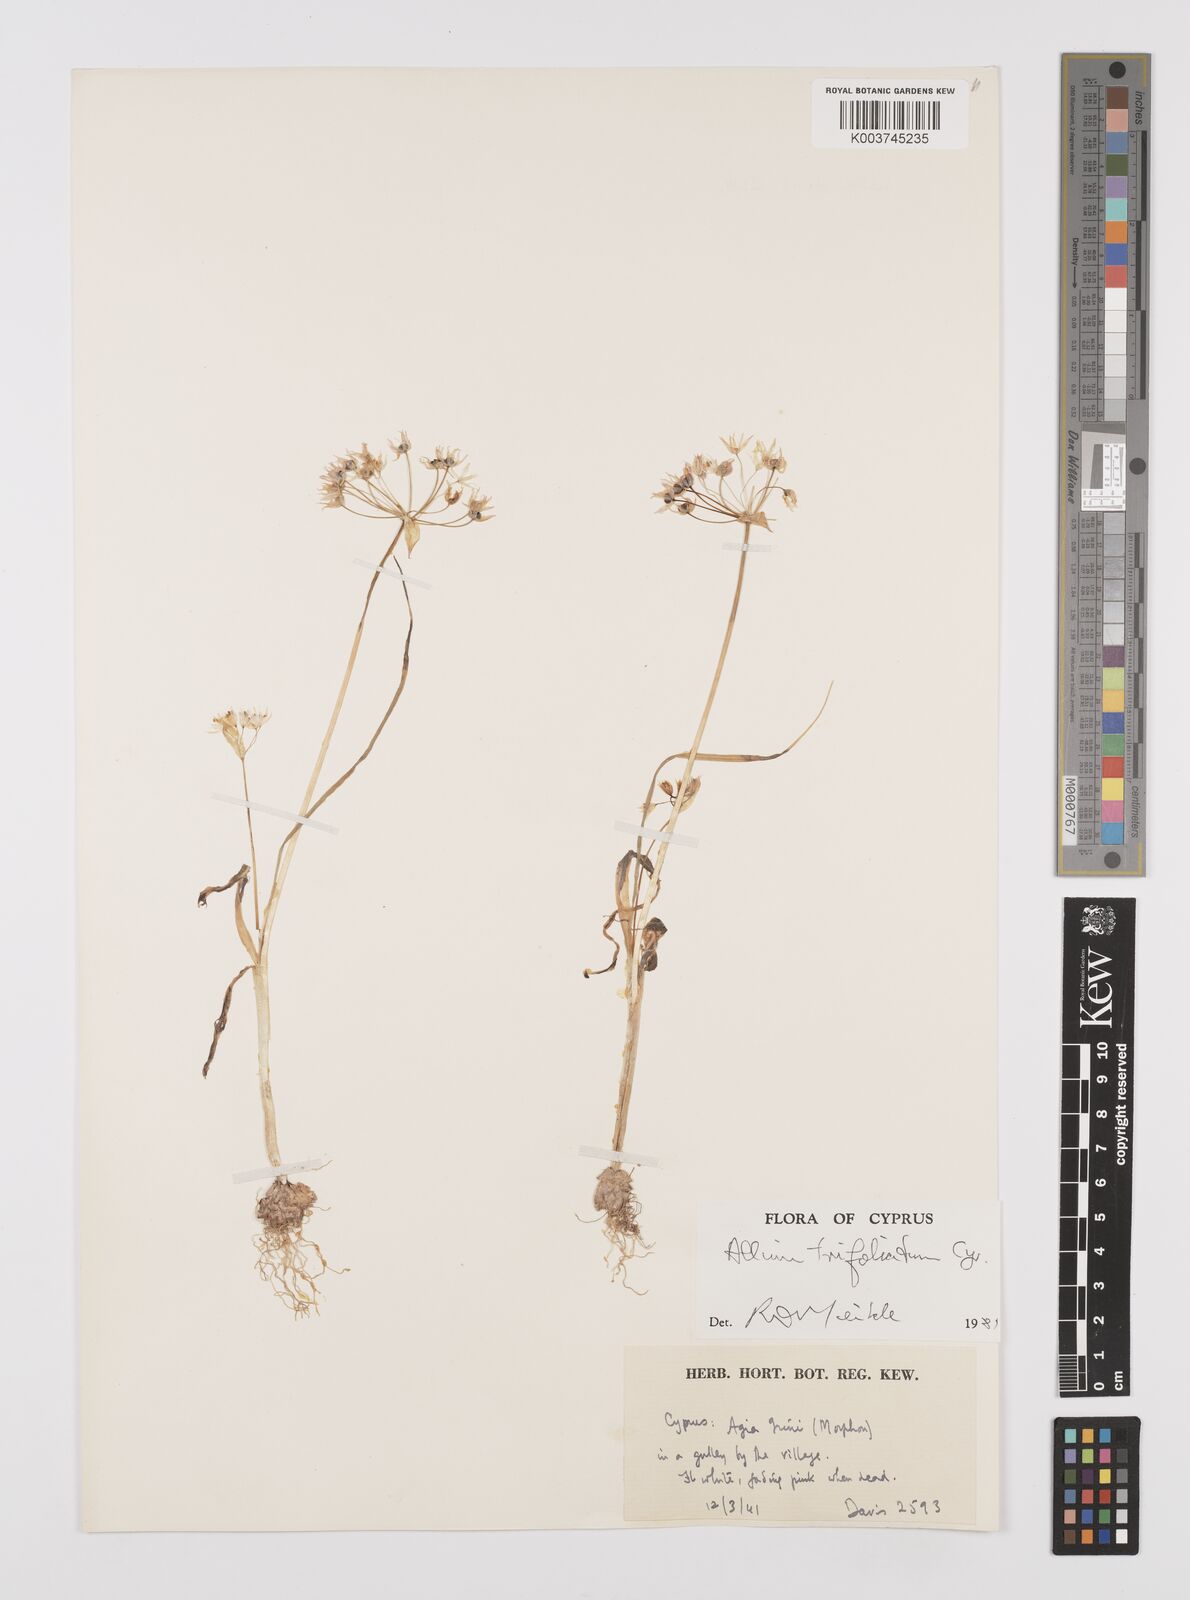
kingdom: Plantae
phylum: Tracheophyta
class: Liliopsida
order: Asparagales
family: Amaryllidaceae
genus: Allium
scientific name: Allium trifoliatum
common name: Pink garlic
